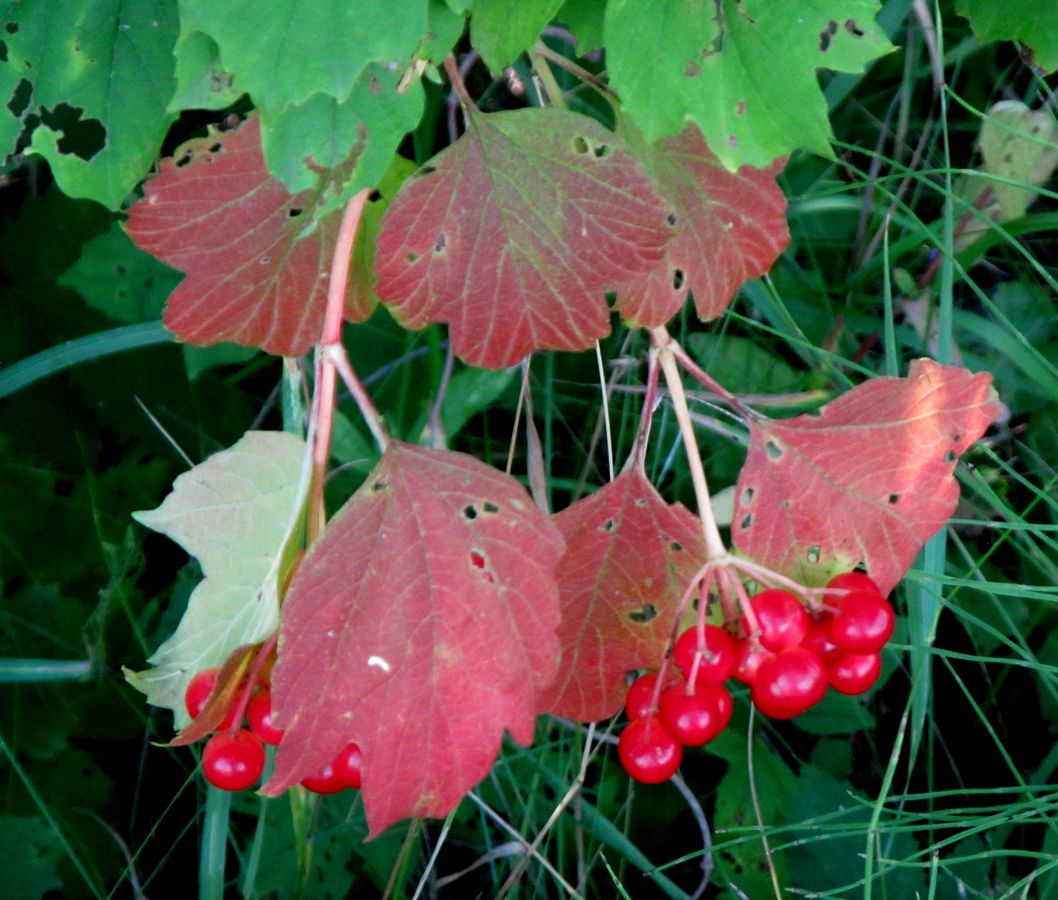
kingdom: Plantae
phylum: Tracheophyta
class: Magnoliopsida
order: Dipsacales
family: Viburnaceae
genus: Viburnum
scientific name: Viburnum opulus
